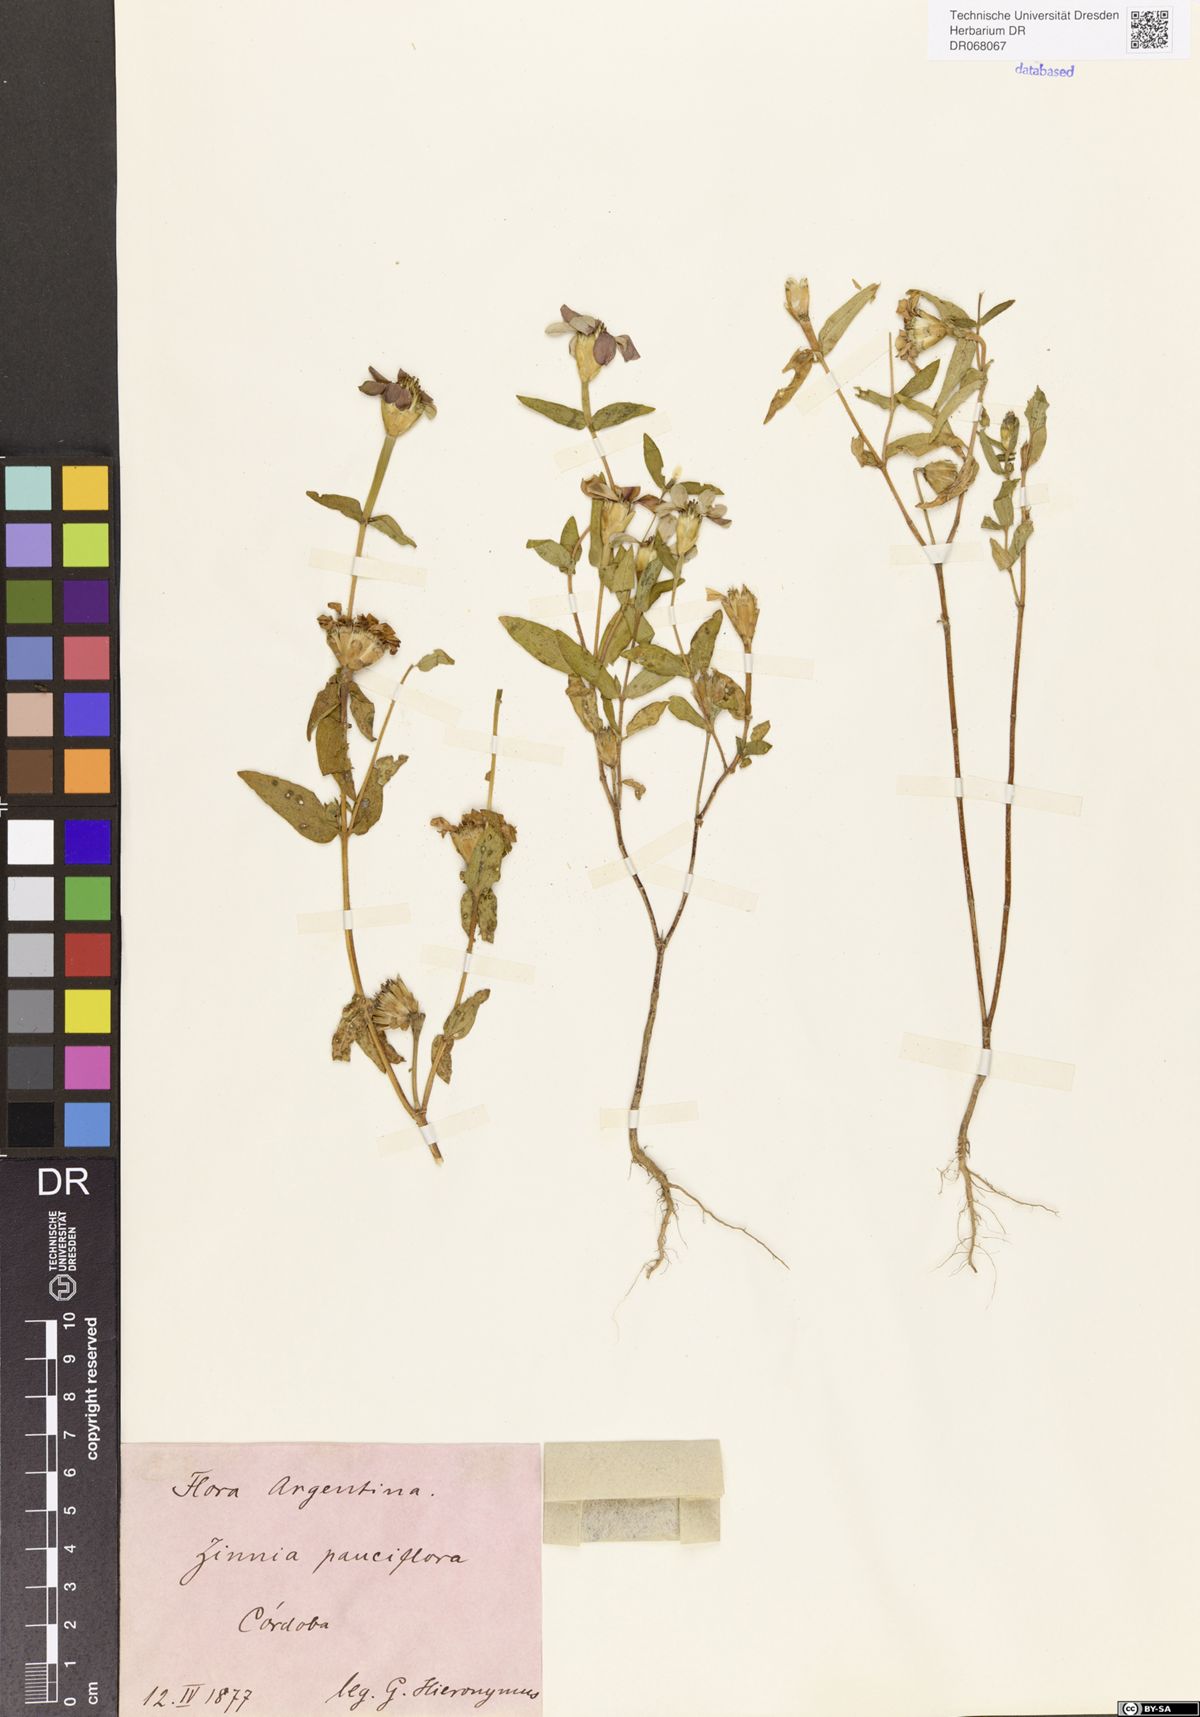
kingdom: Plantae
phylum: Tracheophyta
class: Magnoliopsida
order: Asterales
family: Asteraceae
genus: Zinnia
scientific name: Zinnia peruviana
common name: Peruvian zinnia
